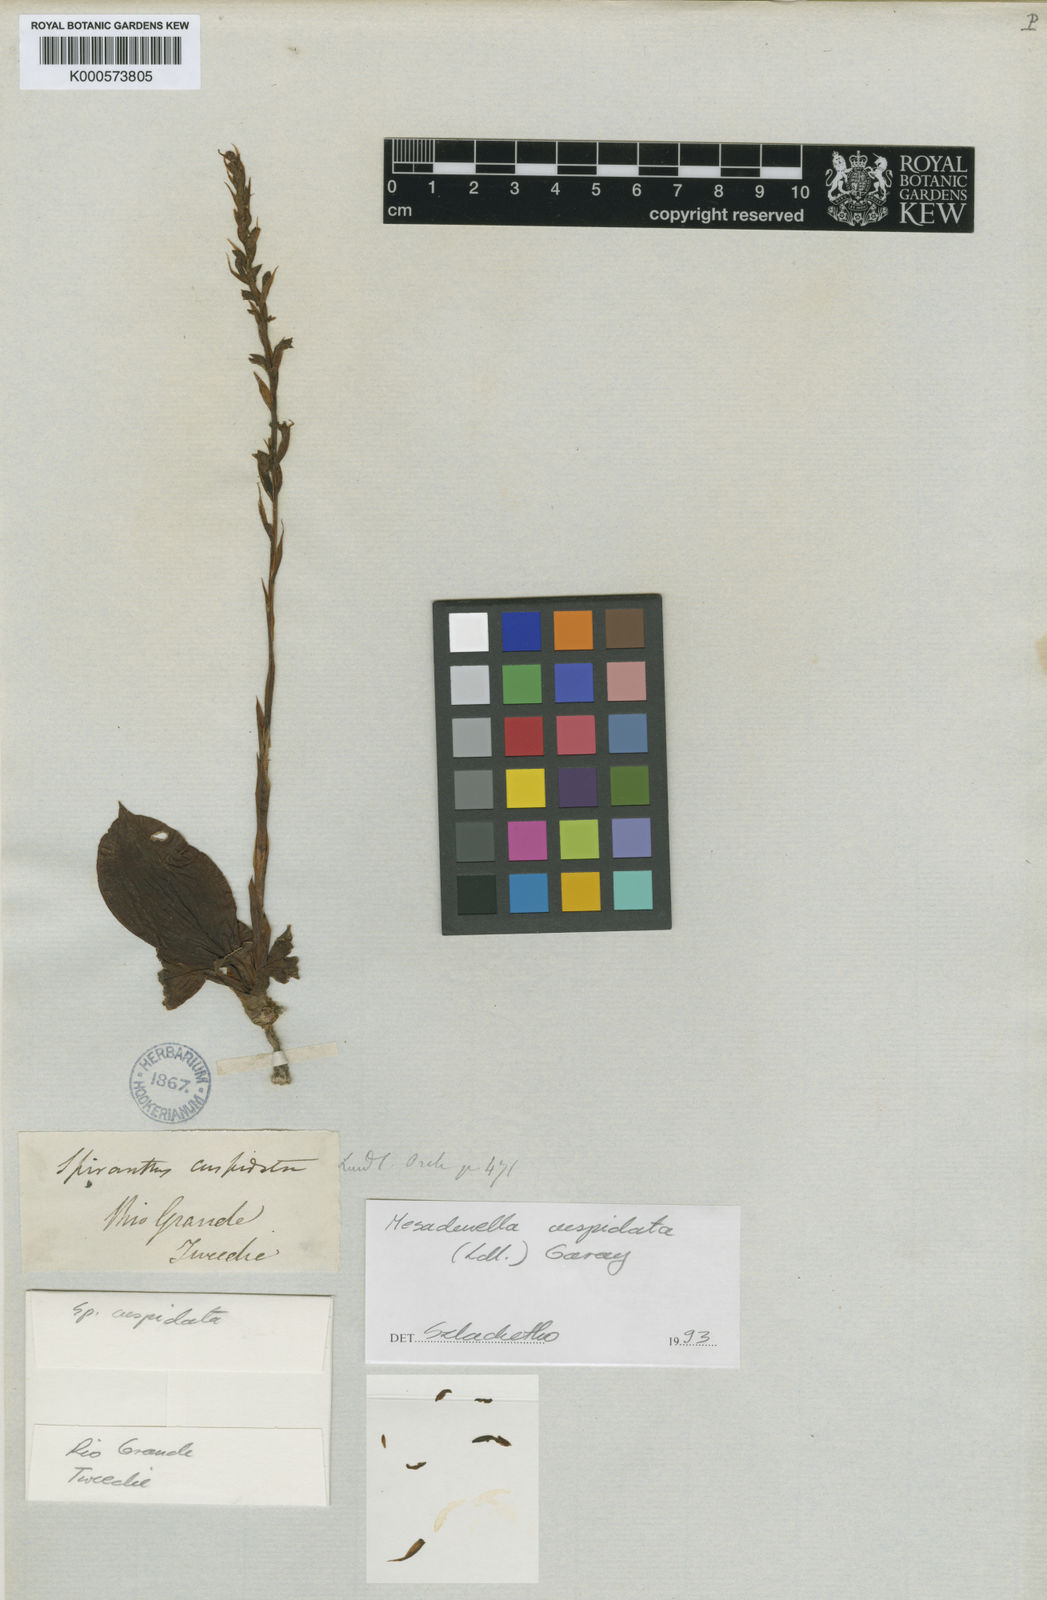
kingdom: Plantae
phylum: Tracheophyta
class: Liliopsida
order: Asparagales
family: Orchidaceae
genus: Mesadenella
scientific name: Mesadenella cuspidata
